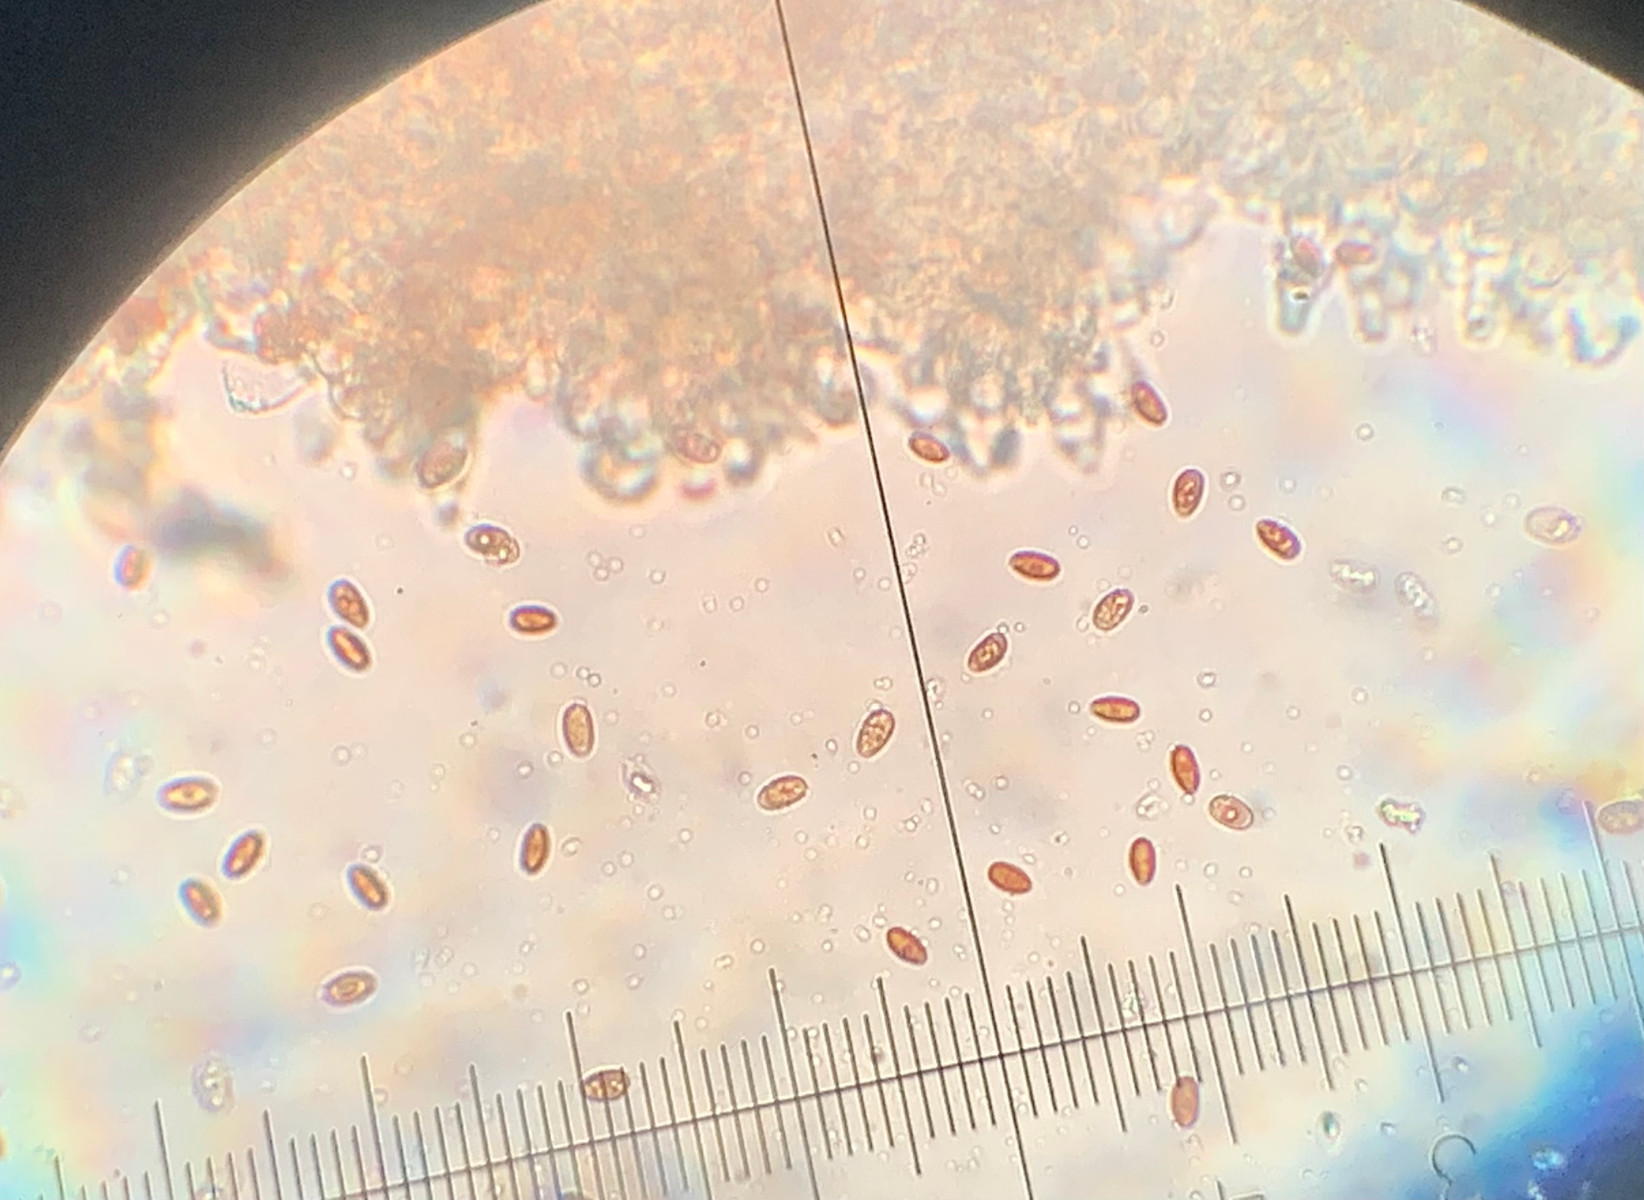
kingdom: Fungi
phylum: Basidiomycota
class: Agaricomycetes
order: Agaricales
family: Psathyrellaceae
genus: Psathyrella
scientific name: Psathyrella
